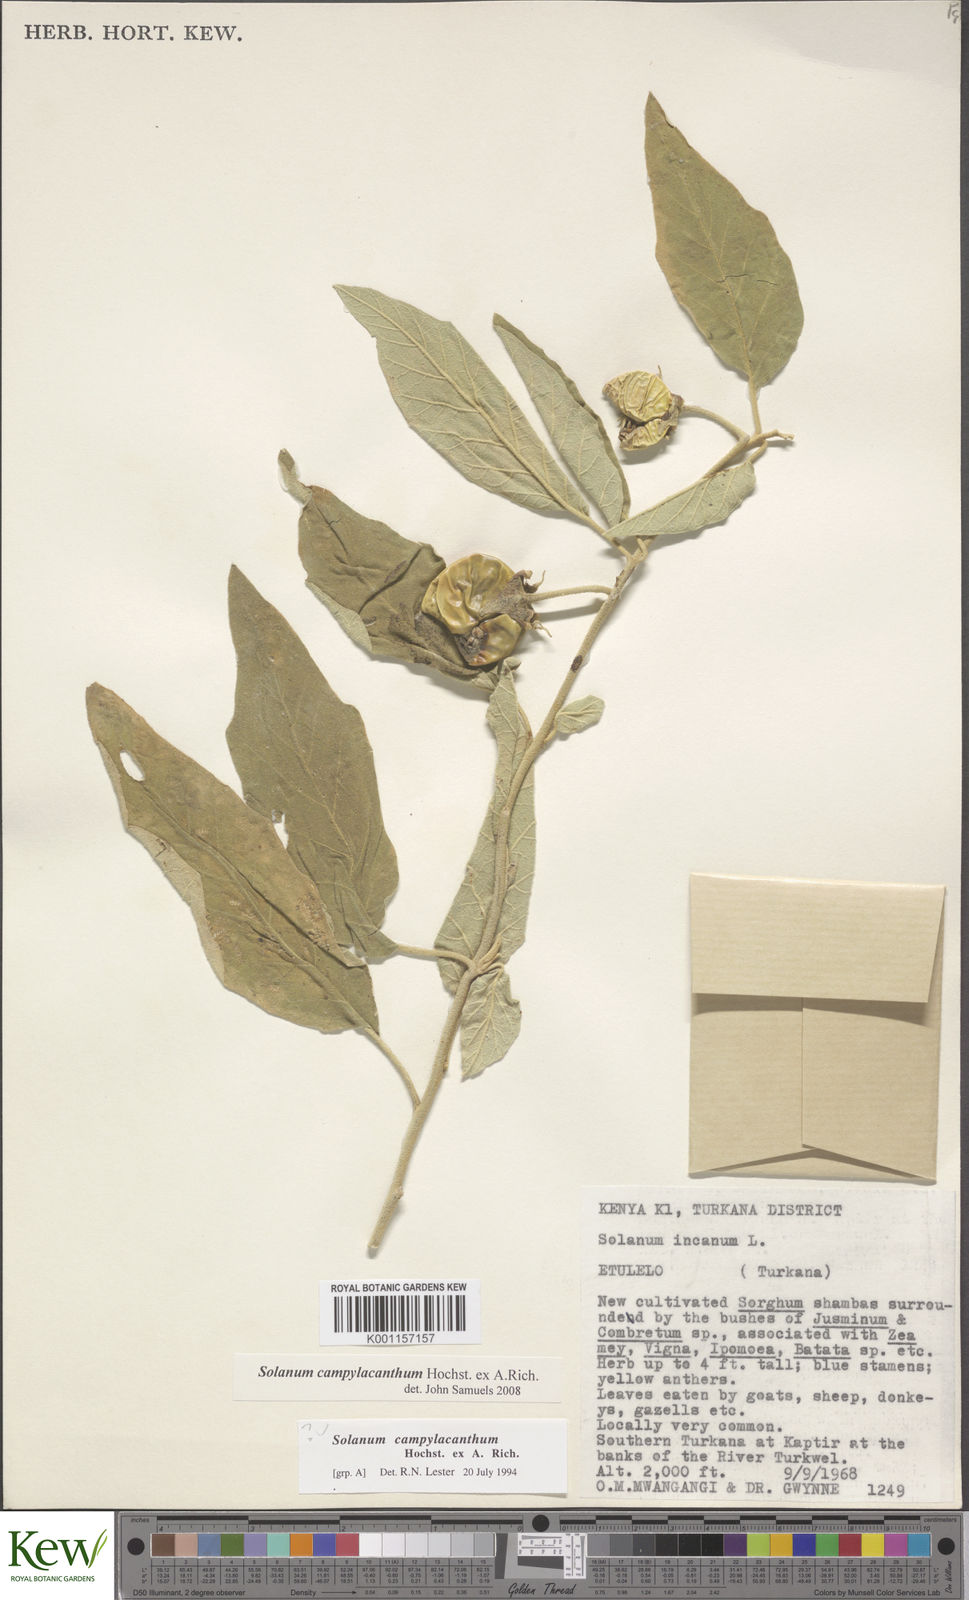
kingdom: Plantae
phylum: Tracheophyta
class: Magnoliopsida
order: Solanales
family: Solanaceae
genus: Solanum
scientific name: Solanum campylacanthum
